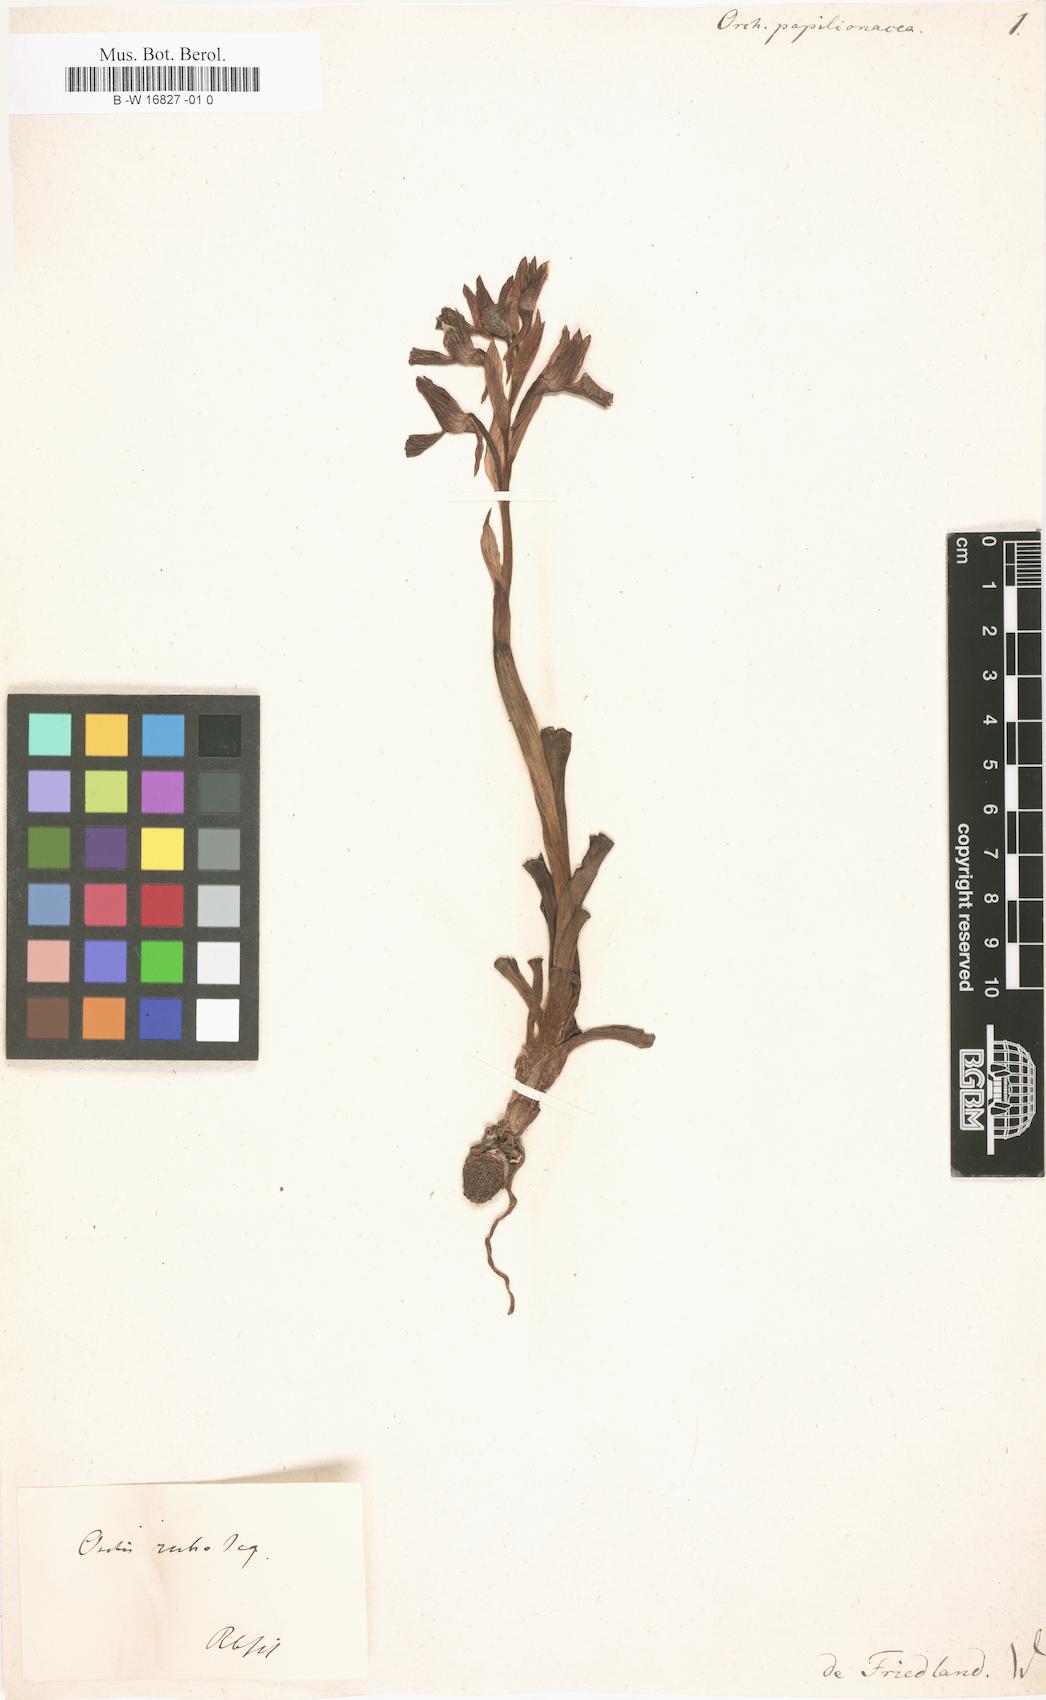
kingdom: Plantae
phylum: Tracheophyta
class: Liliopsida
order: Asparagales
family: Orchidaceae
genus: Anacamptis
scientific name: Anacamptis papilionacea
